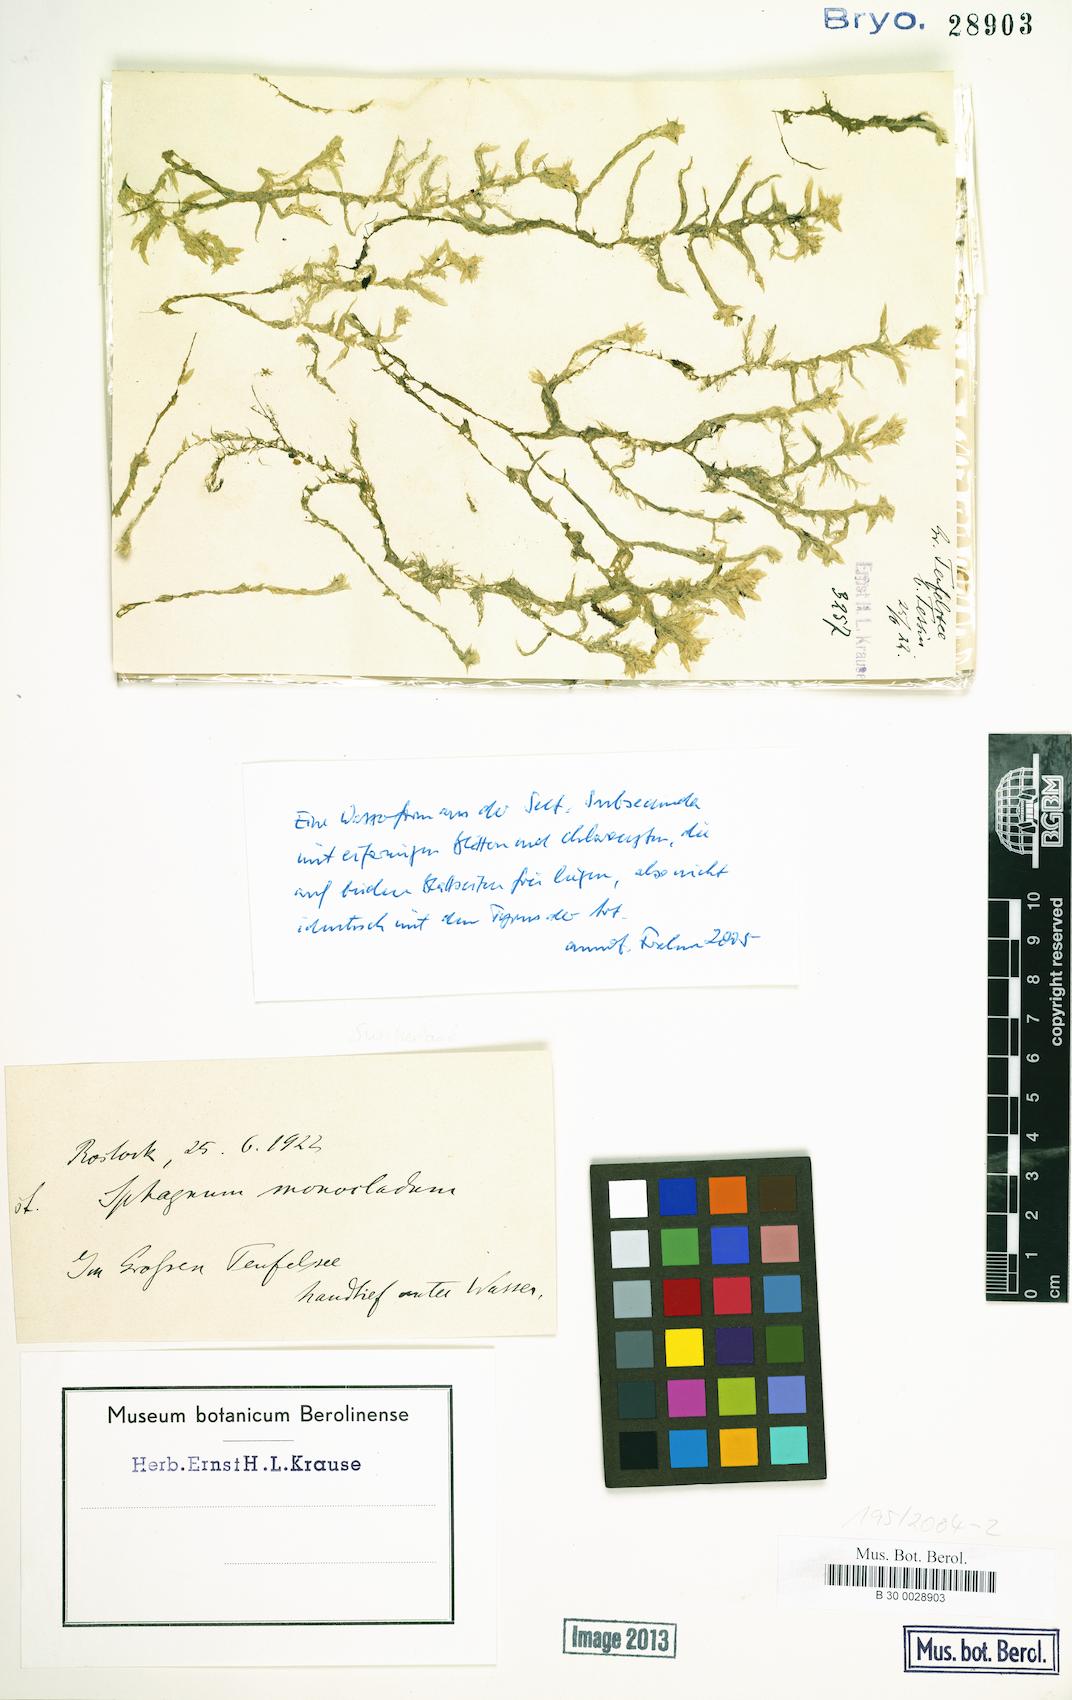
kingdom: Plantae
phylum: Bryophyta
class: Sphagnopsida
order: Sphagnales
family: Sphagnaceae
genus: Sphagnum
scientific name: Sphagnum cuspidatum
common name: Feathery peat moss
